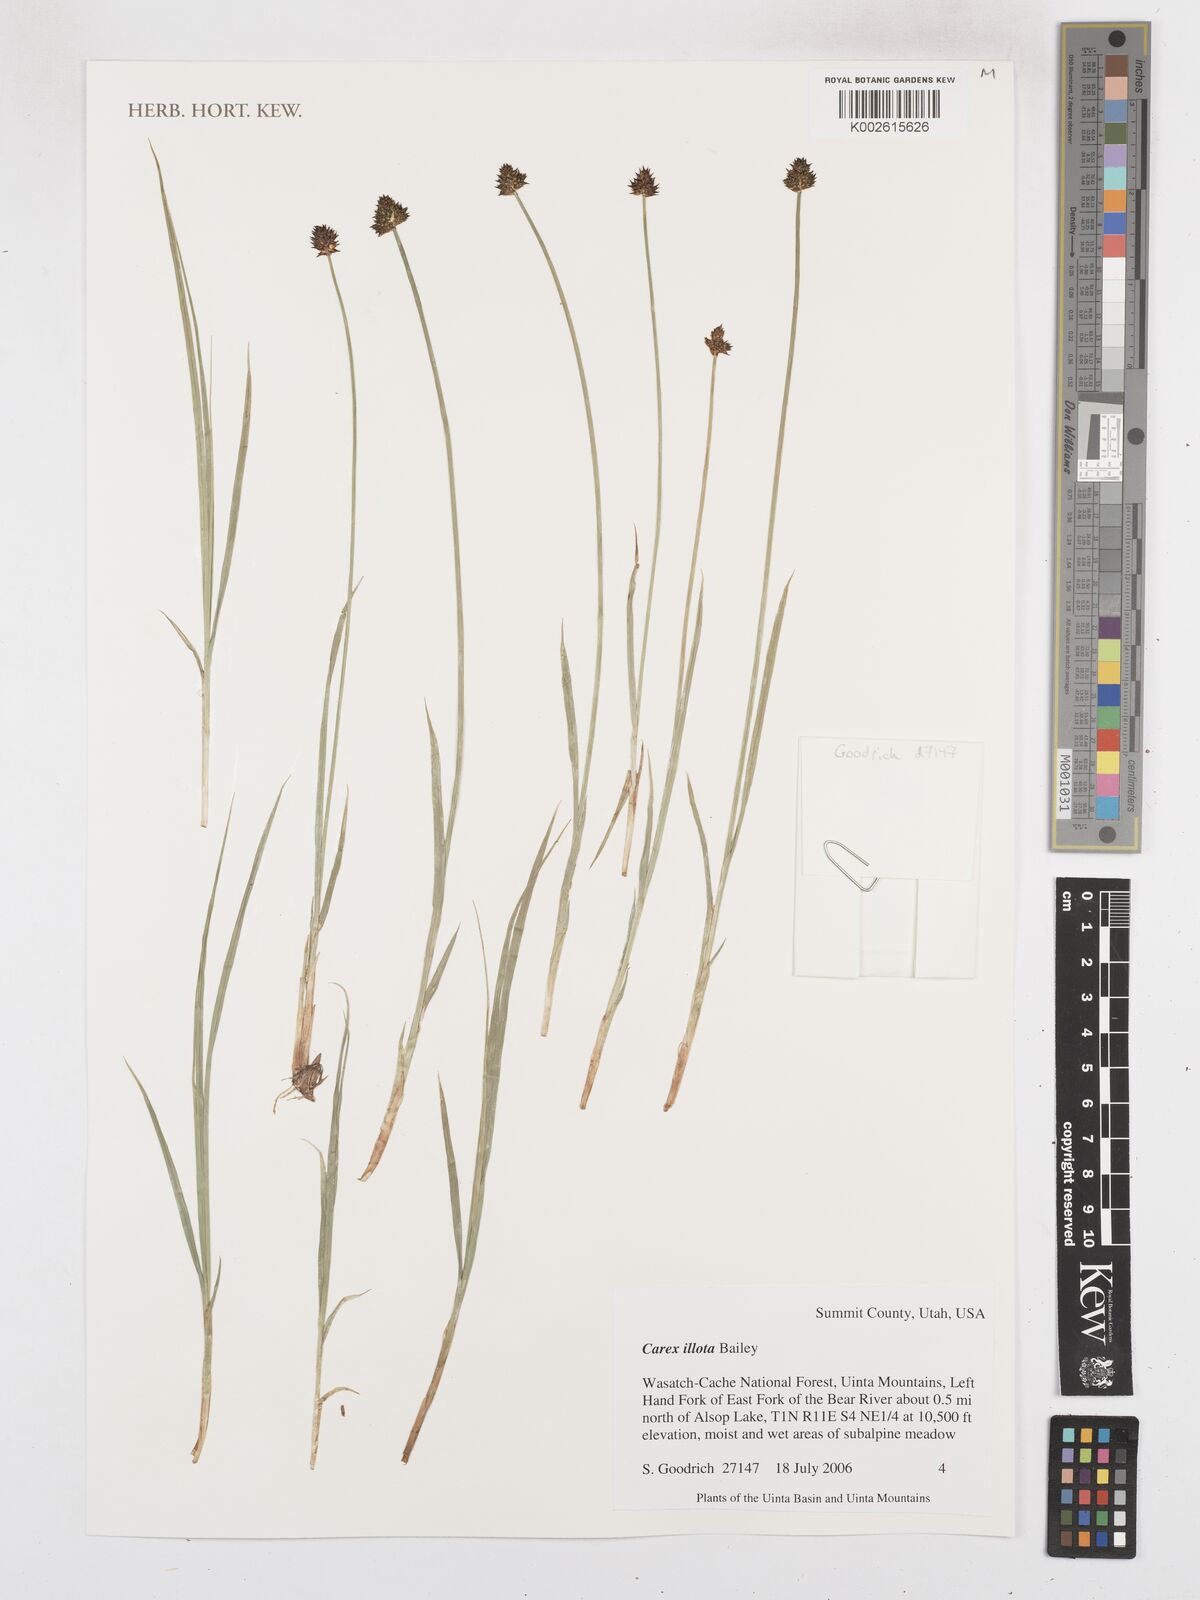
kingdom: Plantae
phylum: Tracheophyta
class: Liliopsida
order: Poales
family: Cyperaceae
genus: Carex
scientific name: Carex illota
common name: Sheep sedge
